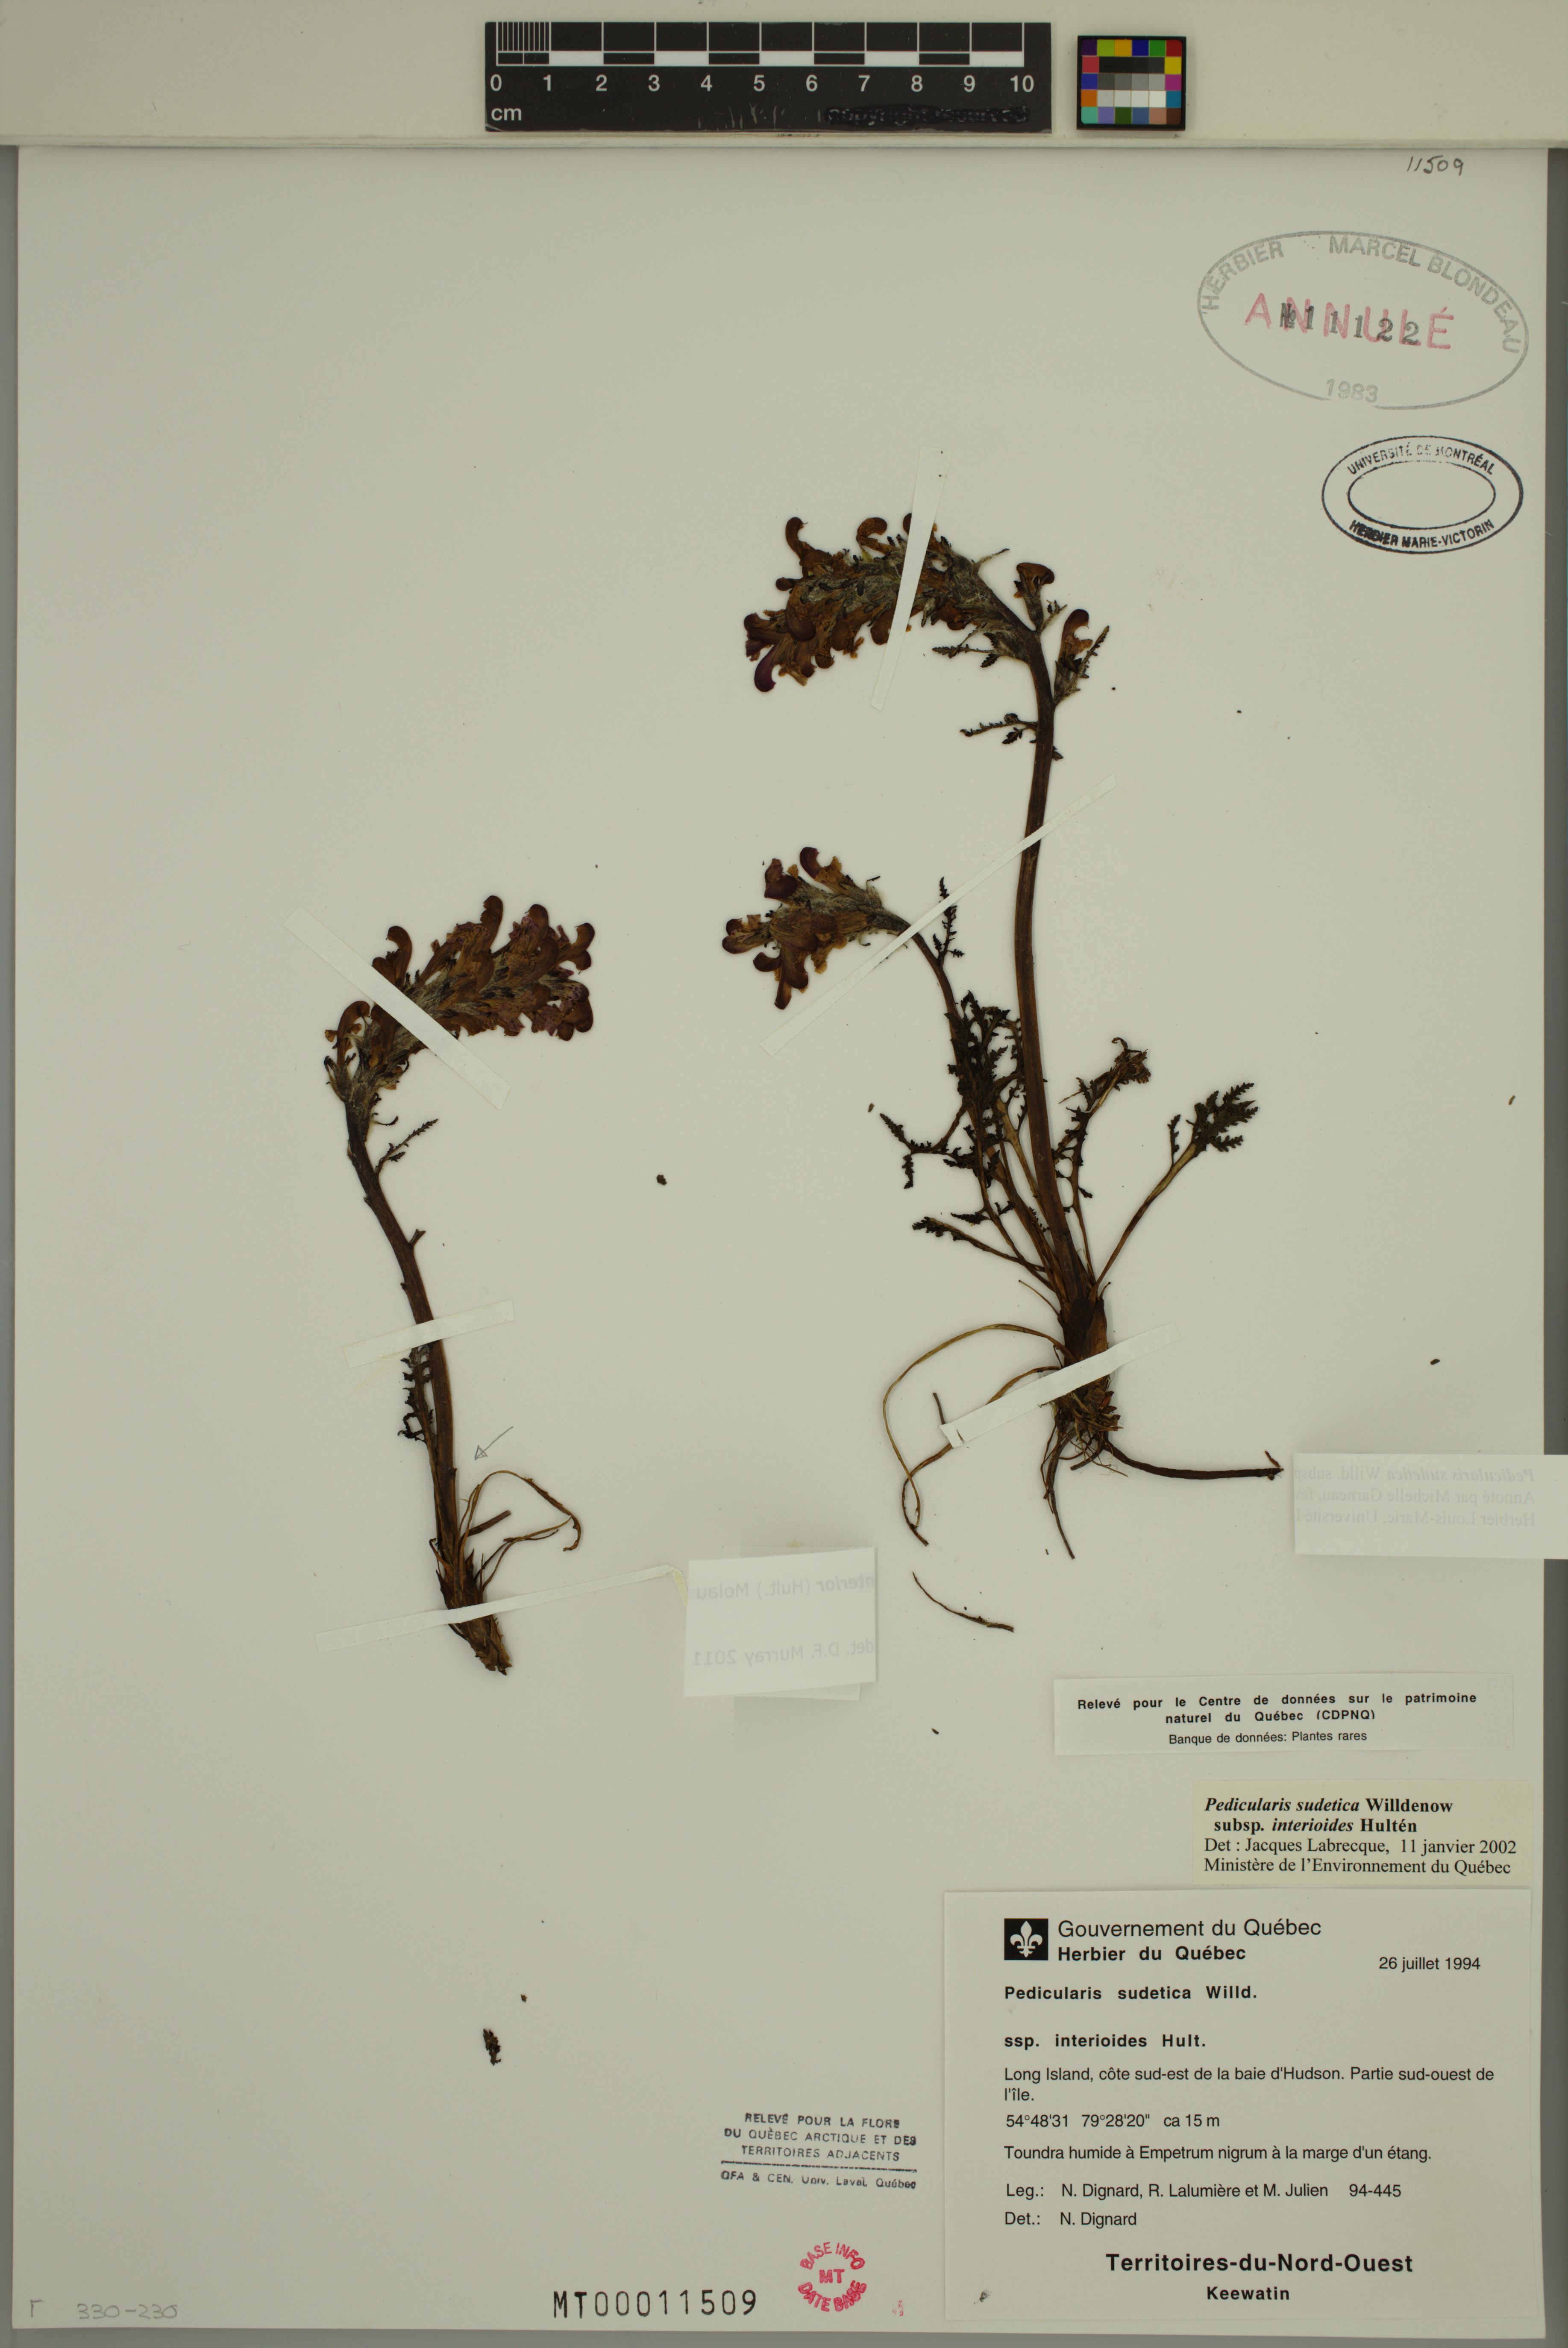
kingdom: Plantae
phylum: Tracheophyta
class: Magnoliopsida
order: Lamiales
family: Orobanchaceae
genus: Pedicularis
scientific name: Pedicularis interior
